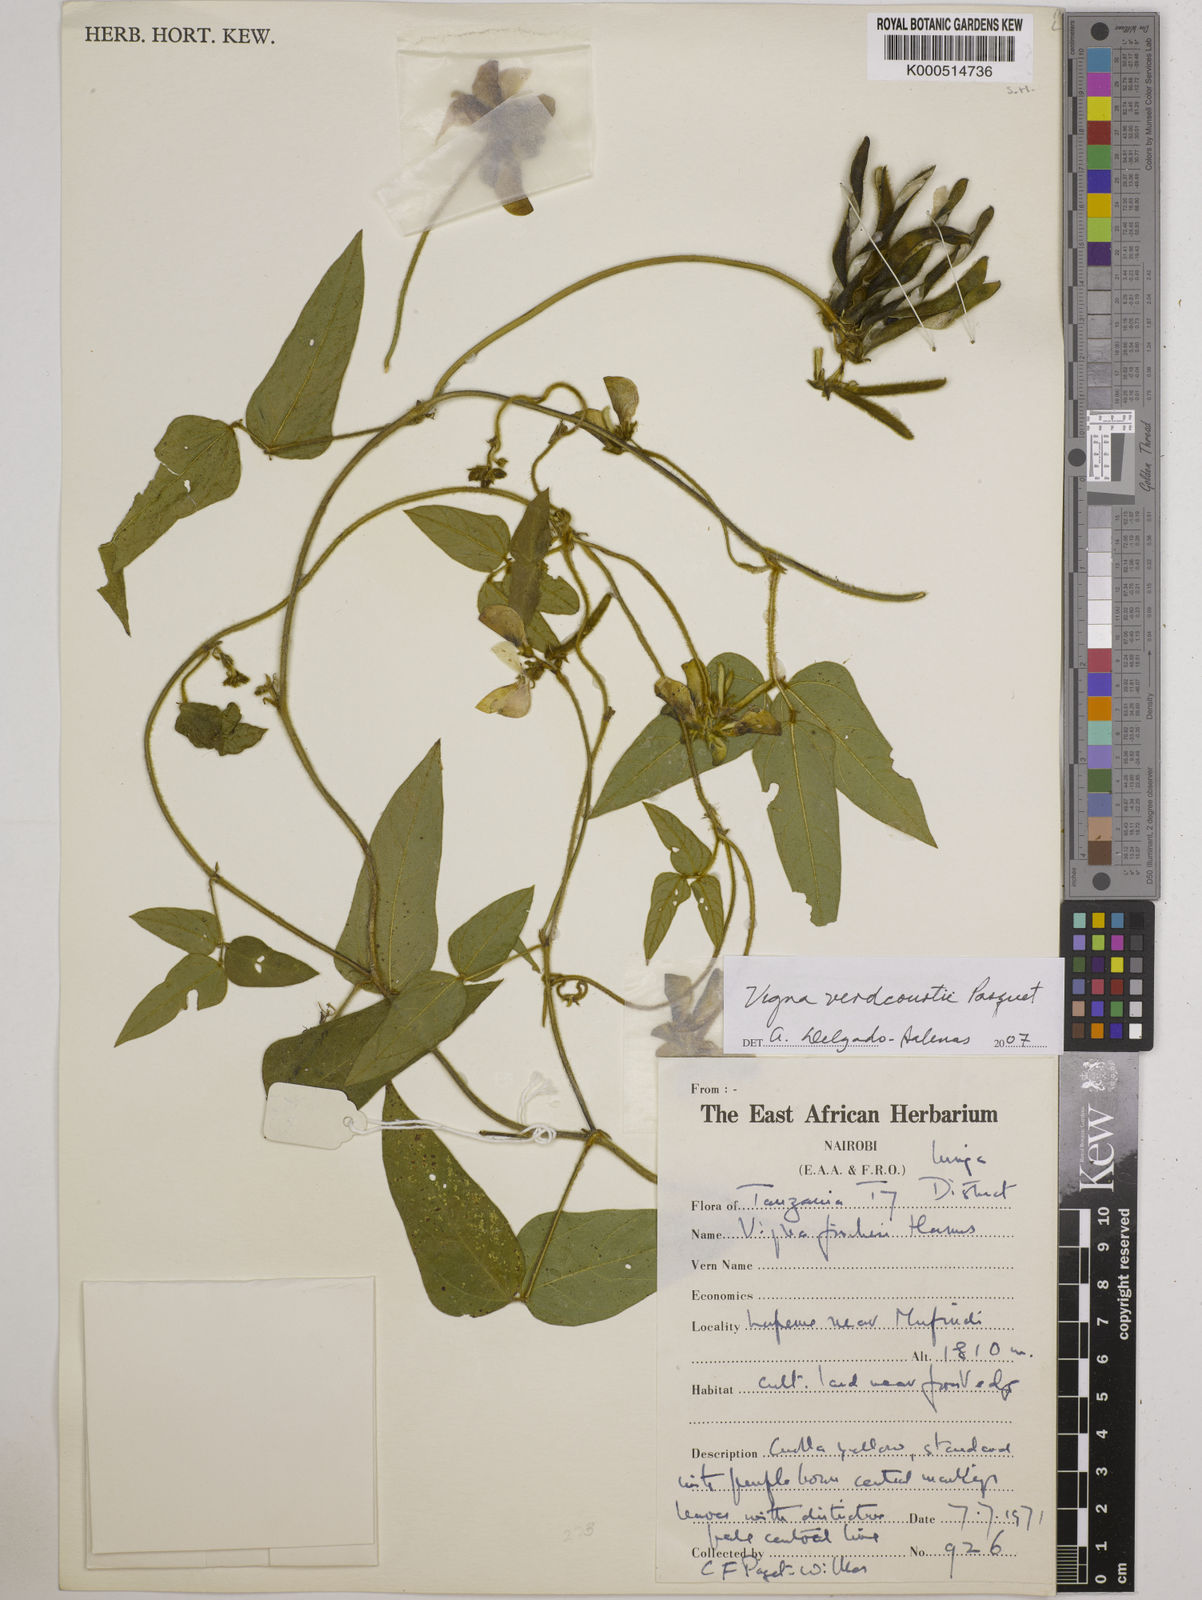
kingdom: Plantae
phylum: Tracheophyta
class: Magnoliopsida
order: Fabales
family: Fabaceae
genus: Vigna
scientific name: Vigna
